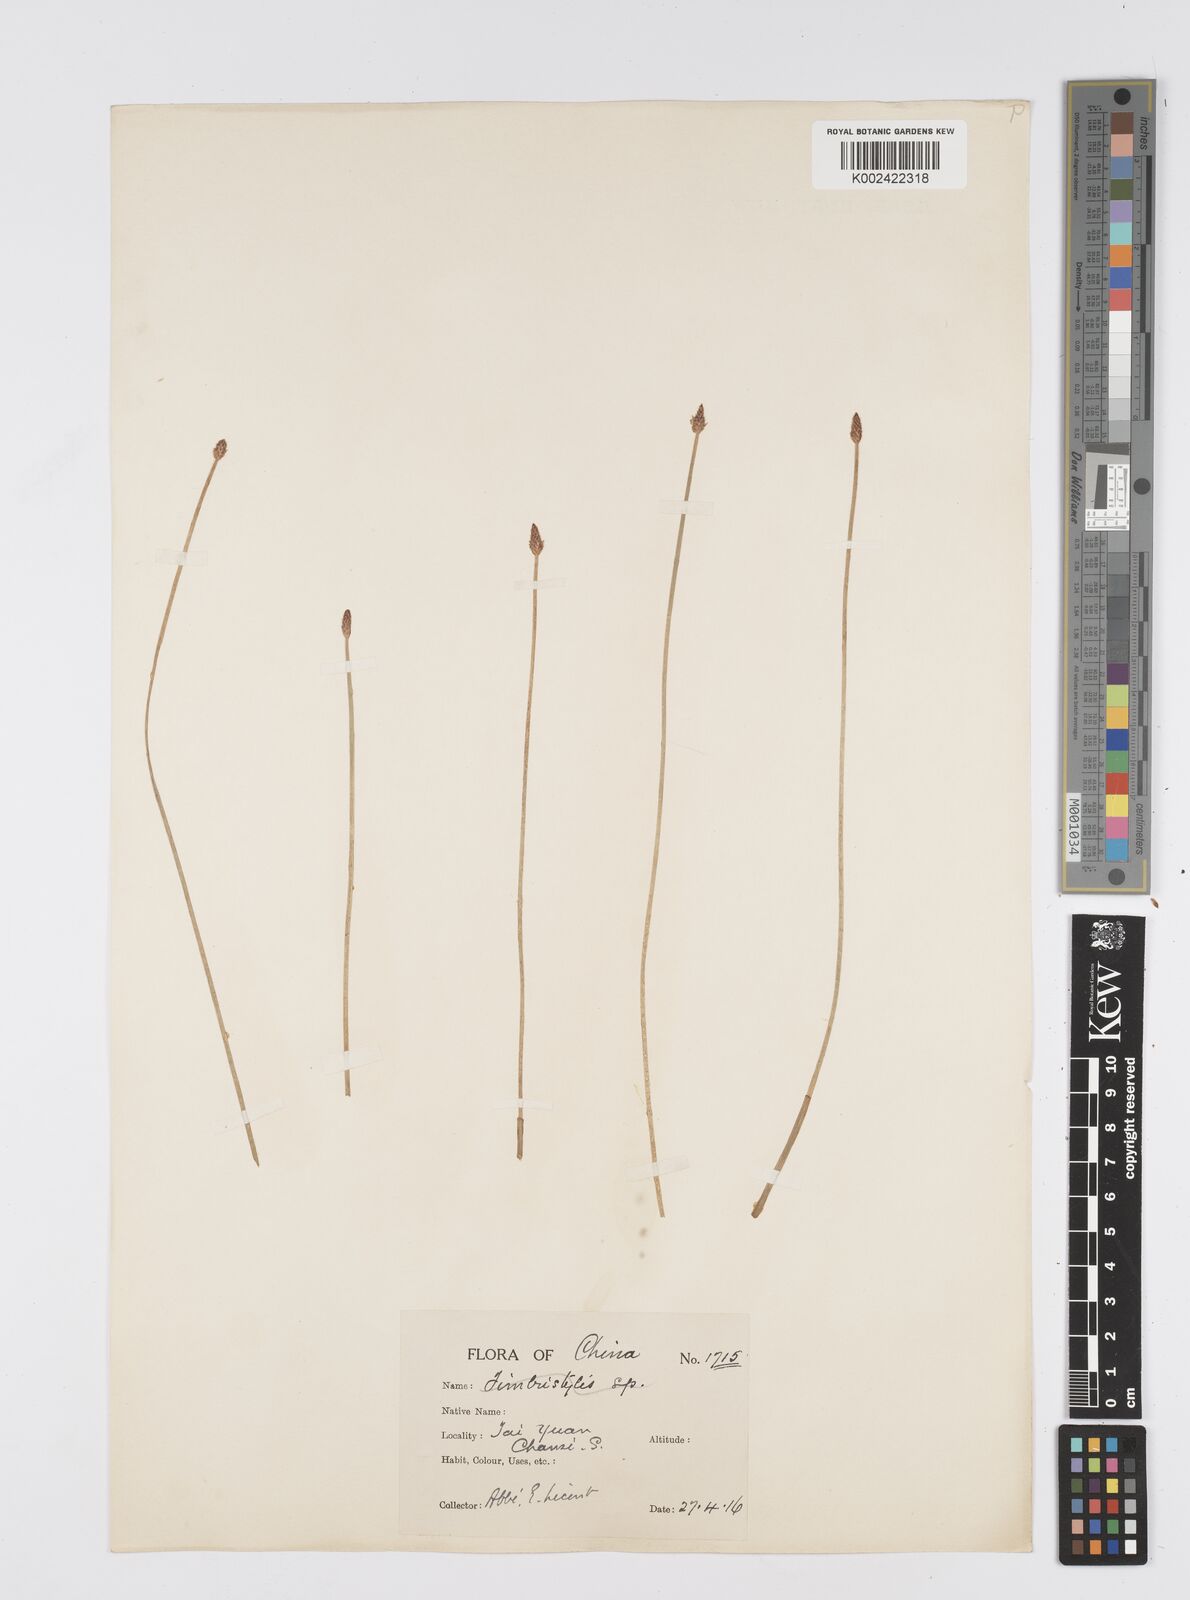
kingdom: Plantae
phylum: Tracheophyta
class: Liliopsida
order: Poales
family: Cyperaceae
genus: Eleocharis
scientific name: Eleocharis
